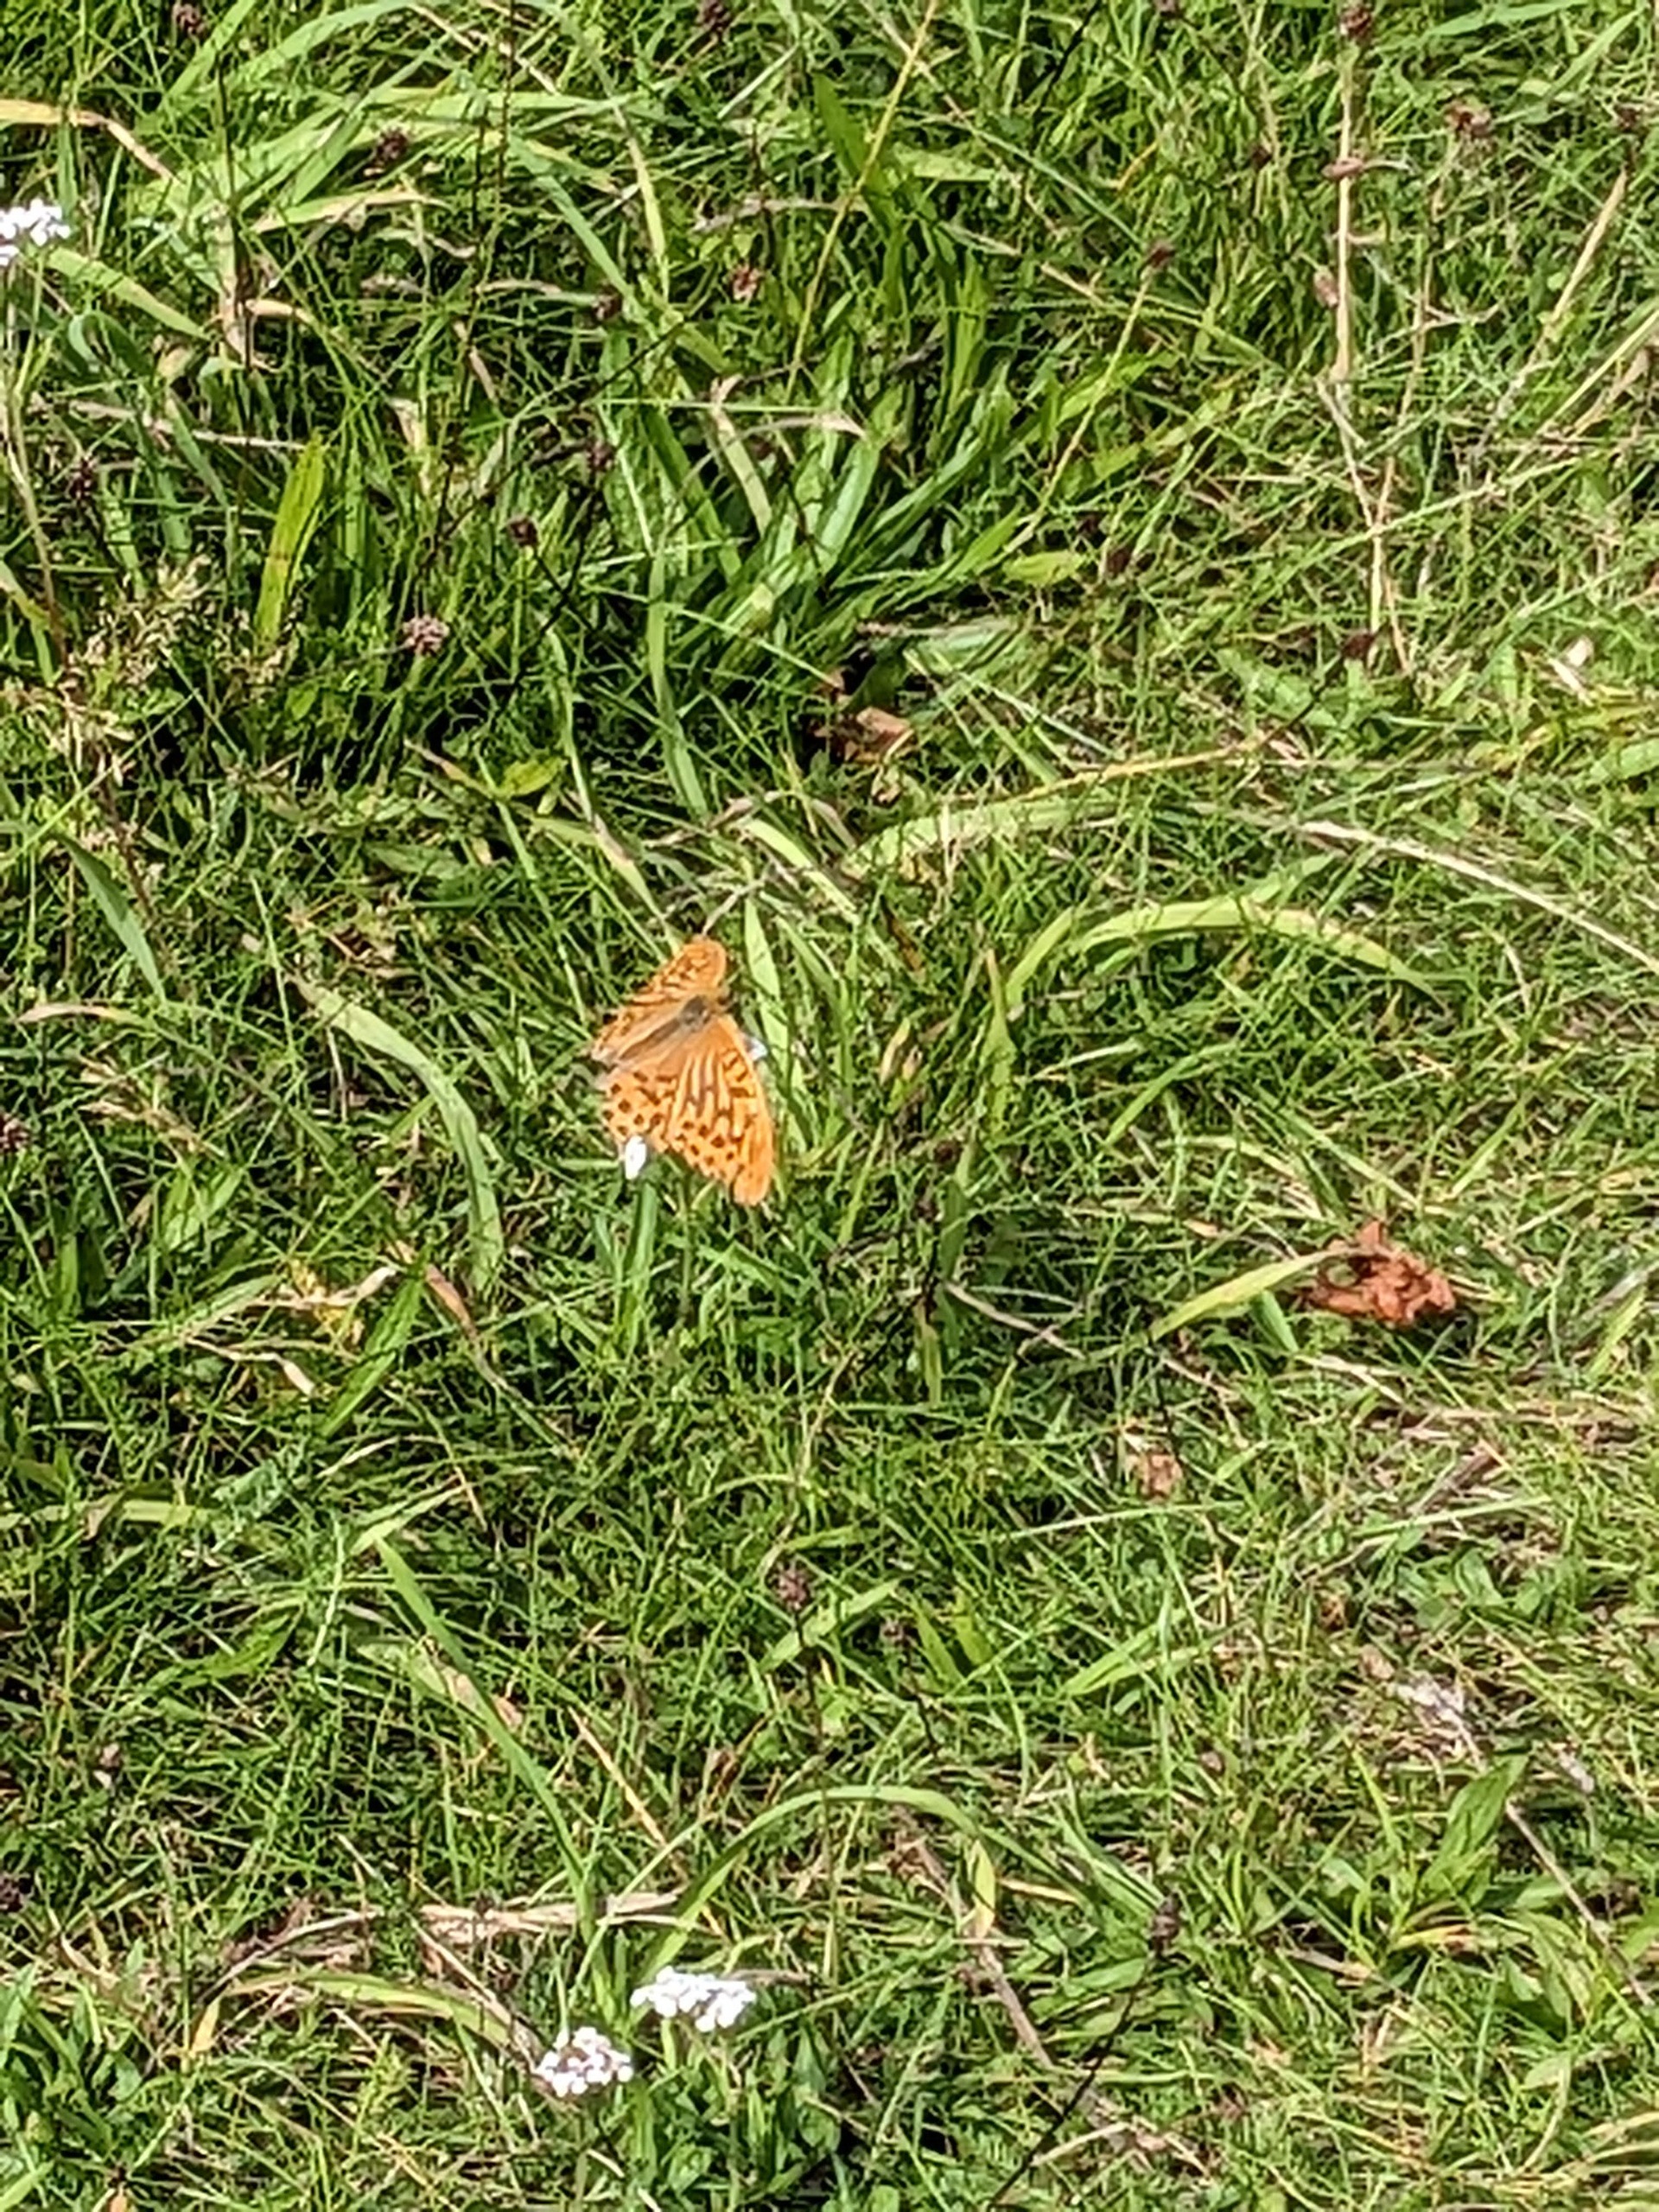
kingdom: Animalia
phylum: Arthropoda
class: Insecta
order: Lepidoptera
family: Nymphalidae
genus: Argynnis
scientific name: Argynnis paphia
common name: Kejserkåbe
